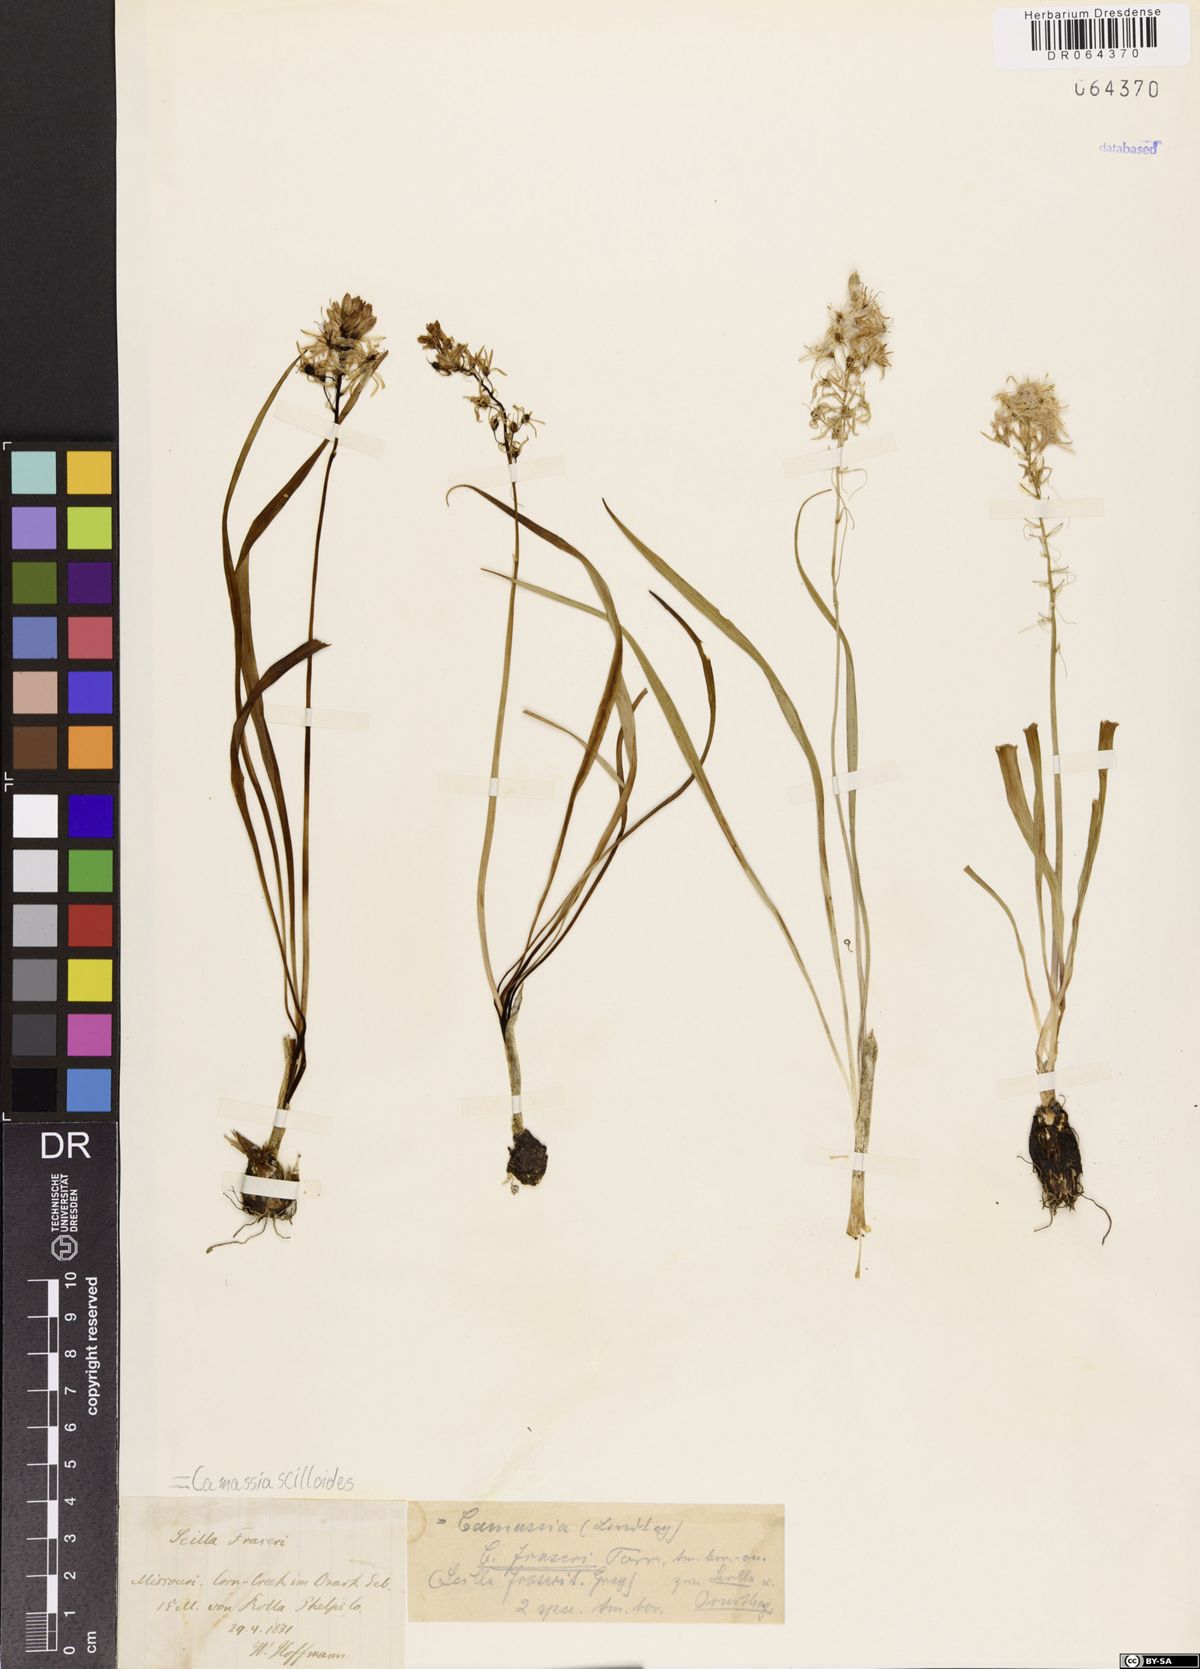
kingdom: Plantae
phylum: Tracheophyta
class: Liliopsida
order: Asparagales
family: Asparagaceae
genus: Camassia
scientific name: Camassia scilloides
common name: Wild hyacinth
